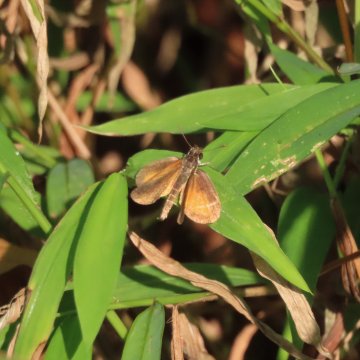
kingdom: Animalia
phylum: Arthropoda
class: Insecta
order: Lepidoptera
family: Hesperiidae
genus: Ancyloxypha
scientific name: Ancyloxypha numitor
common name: Least Skipper
